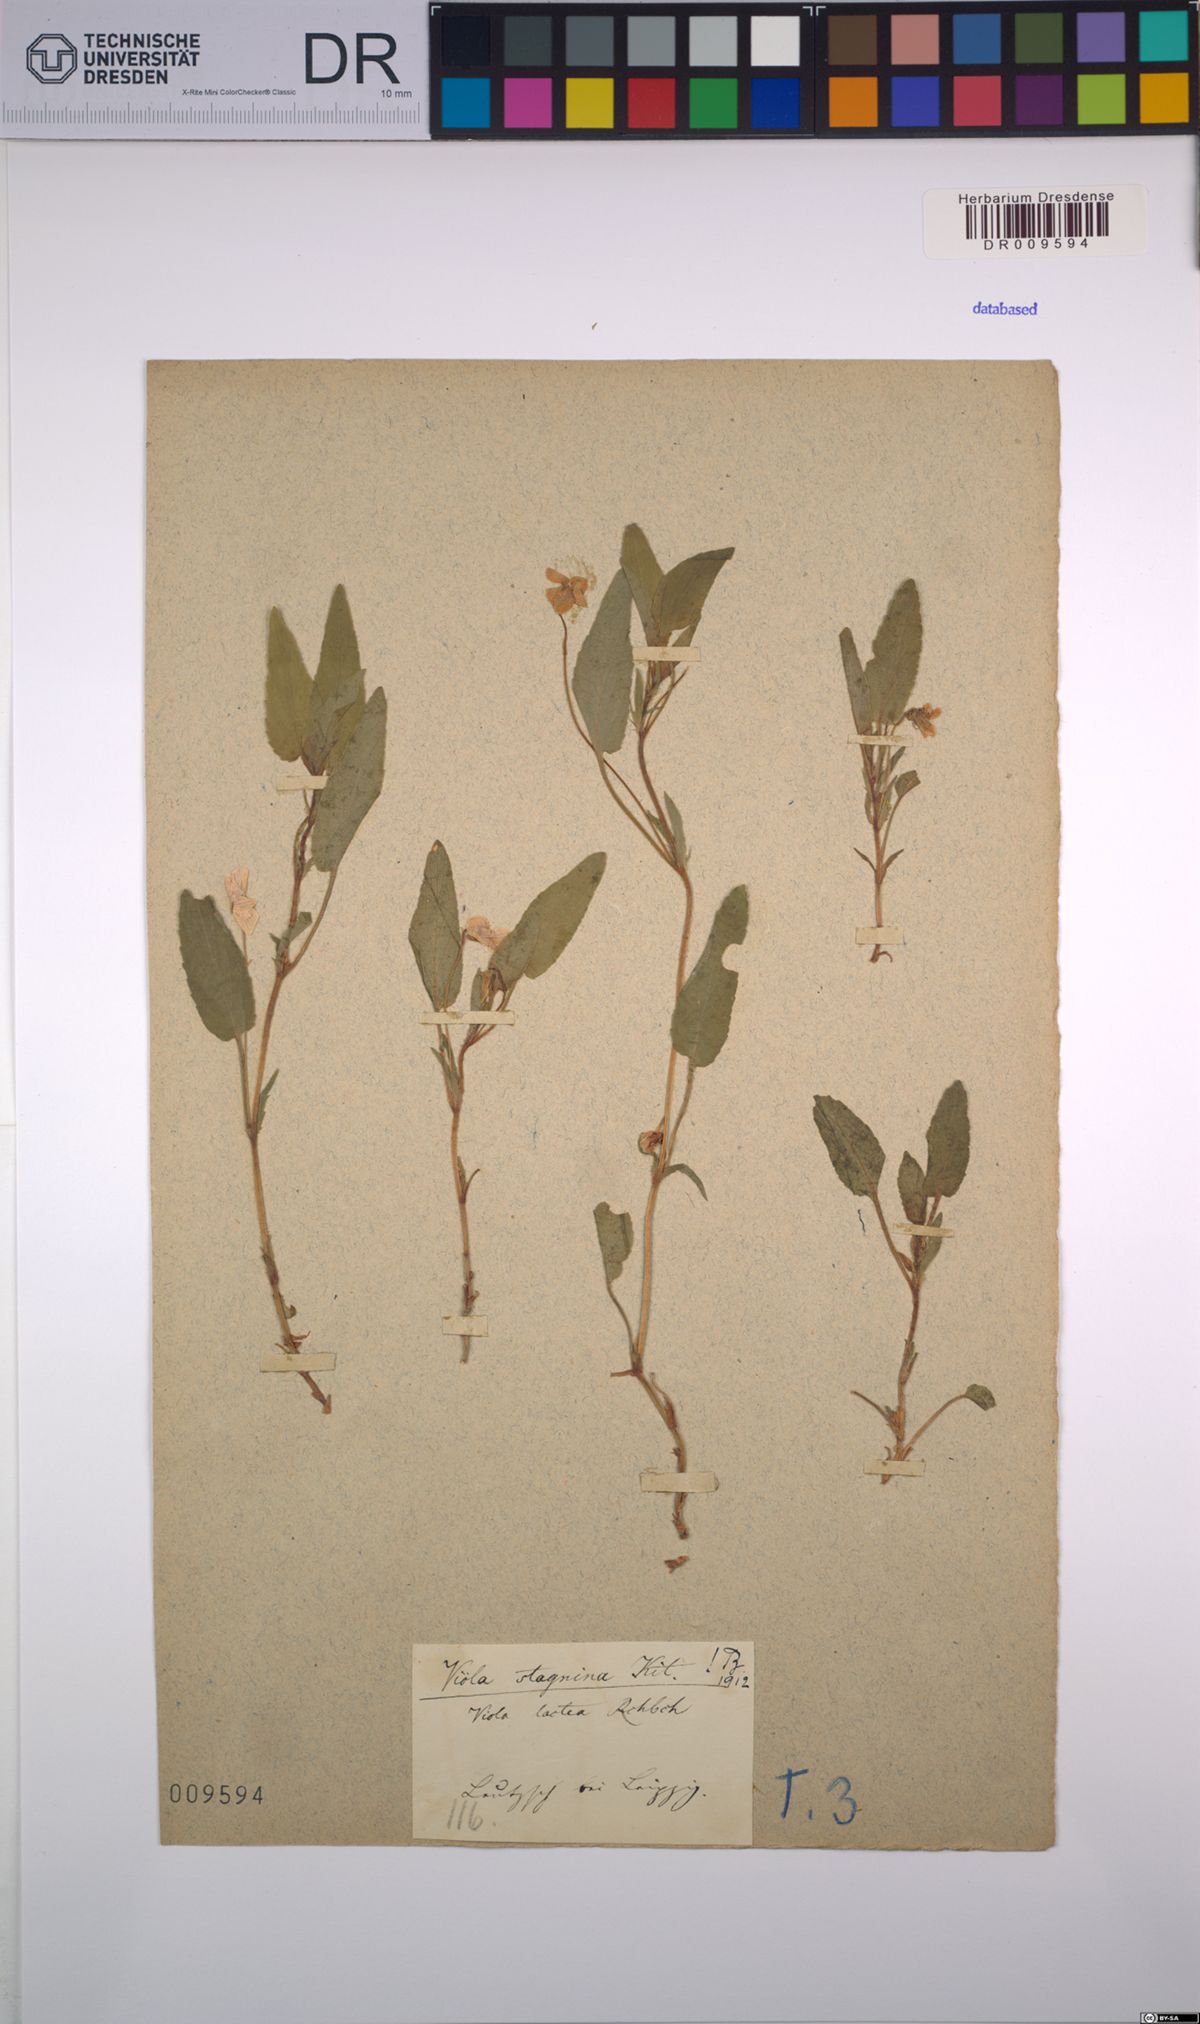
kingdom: Plantae
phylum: Tracheophyta
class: Magnoliopsida
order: Malpighiales
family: Violaceae
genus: Viola
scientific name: Viola stagnina
